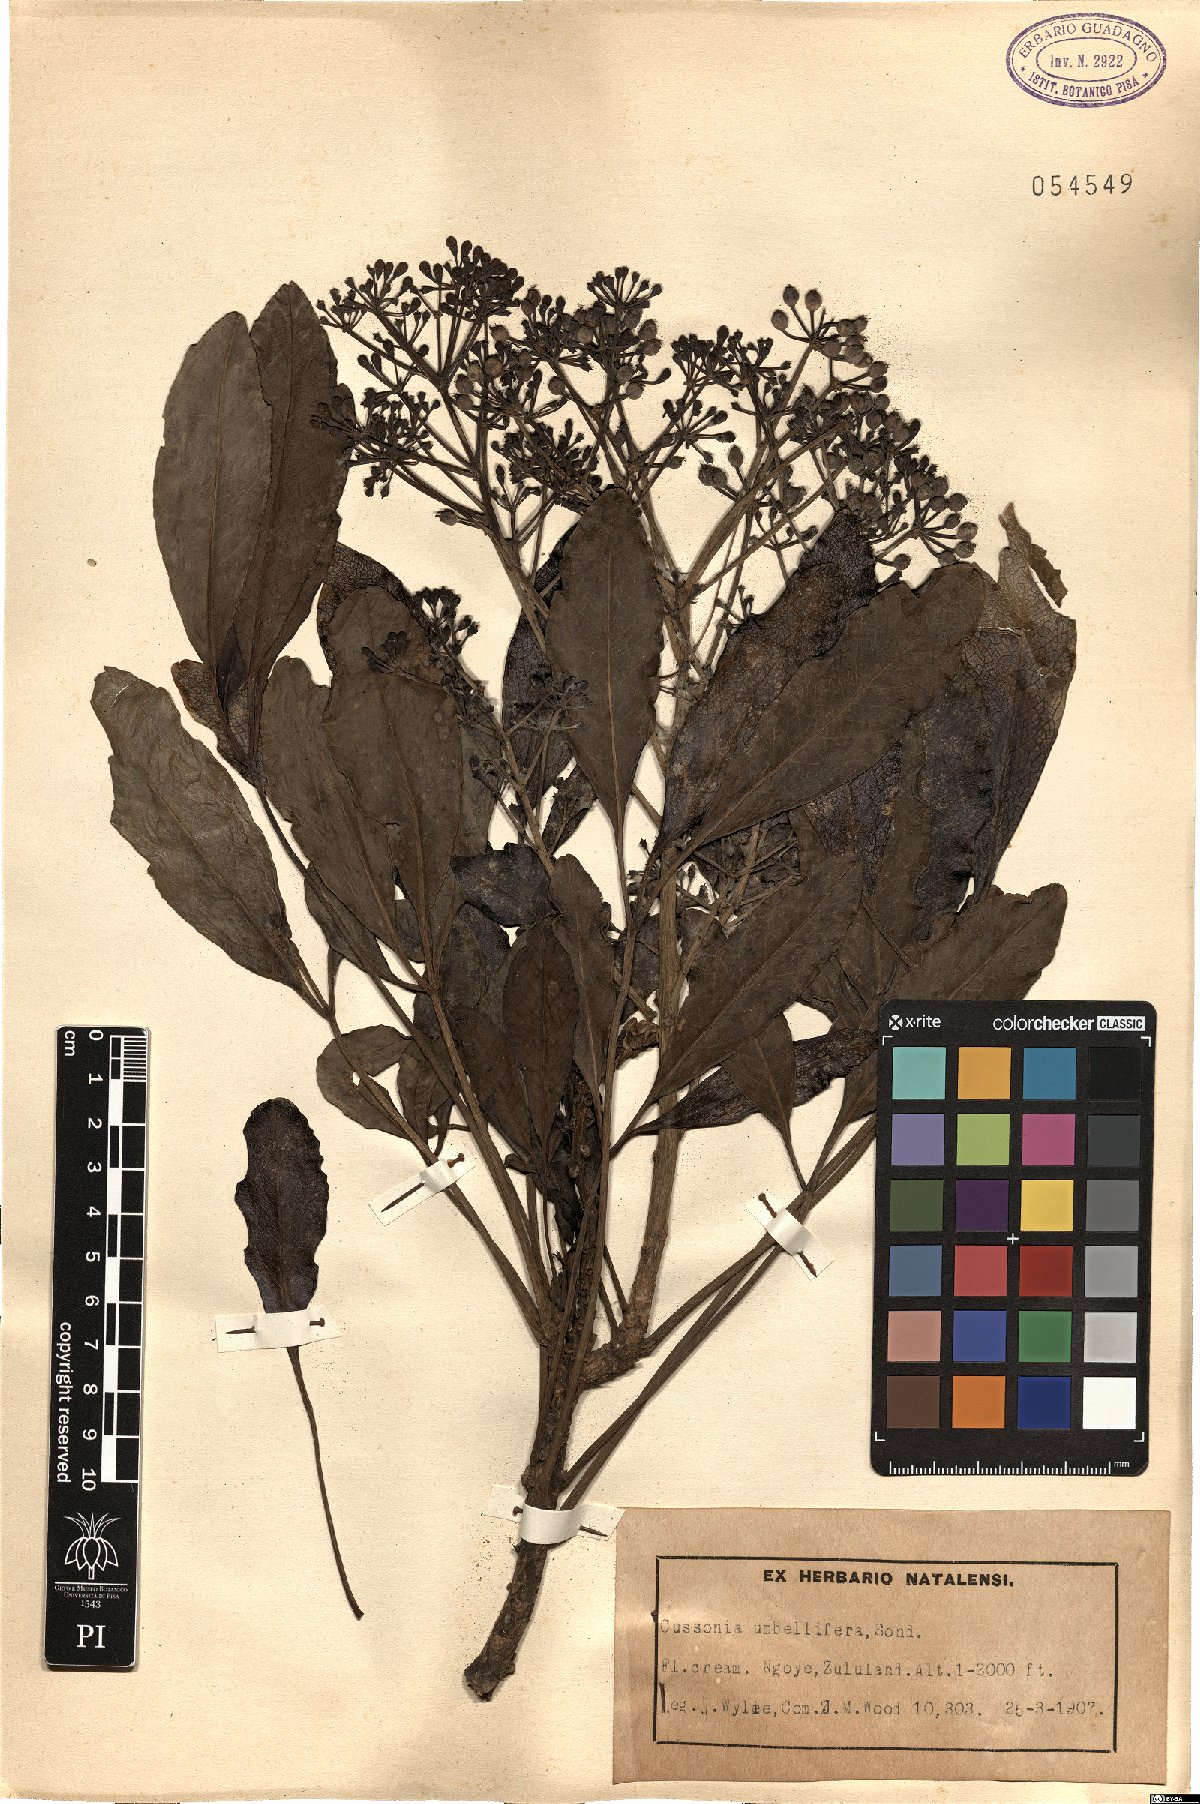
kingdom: Plantae
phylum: Tracheophyta
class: Magnoliopsida
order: Apiales
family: Araliaceae
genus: Neocussonia
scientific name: Neocussonia umbellifera
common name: False cabbage tree
